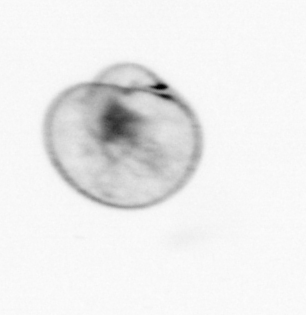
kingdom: Chromista
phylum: Myzozoa
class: Dinophyceae
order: Noctilucales
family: Noctilucaceae
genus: Noctiluca
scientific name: Noctiluca scintillans
